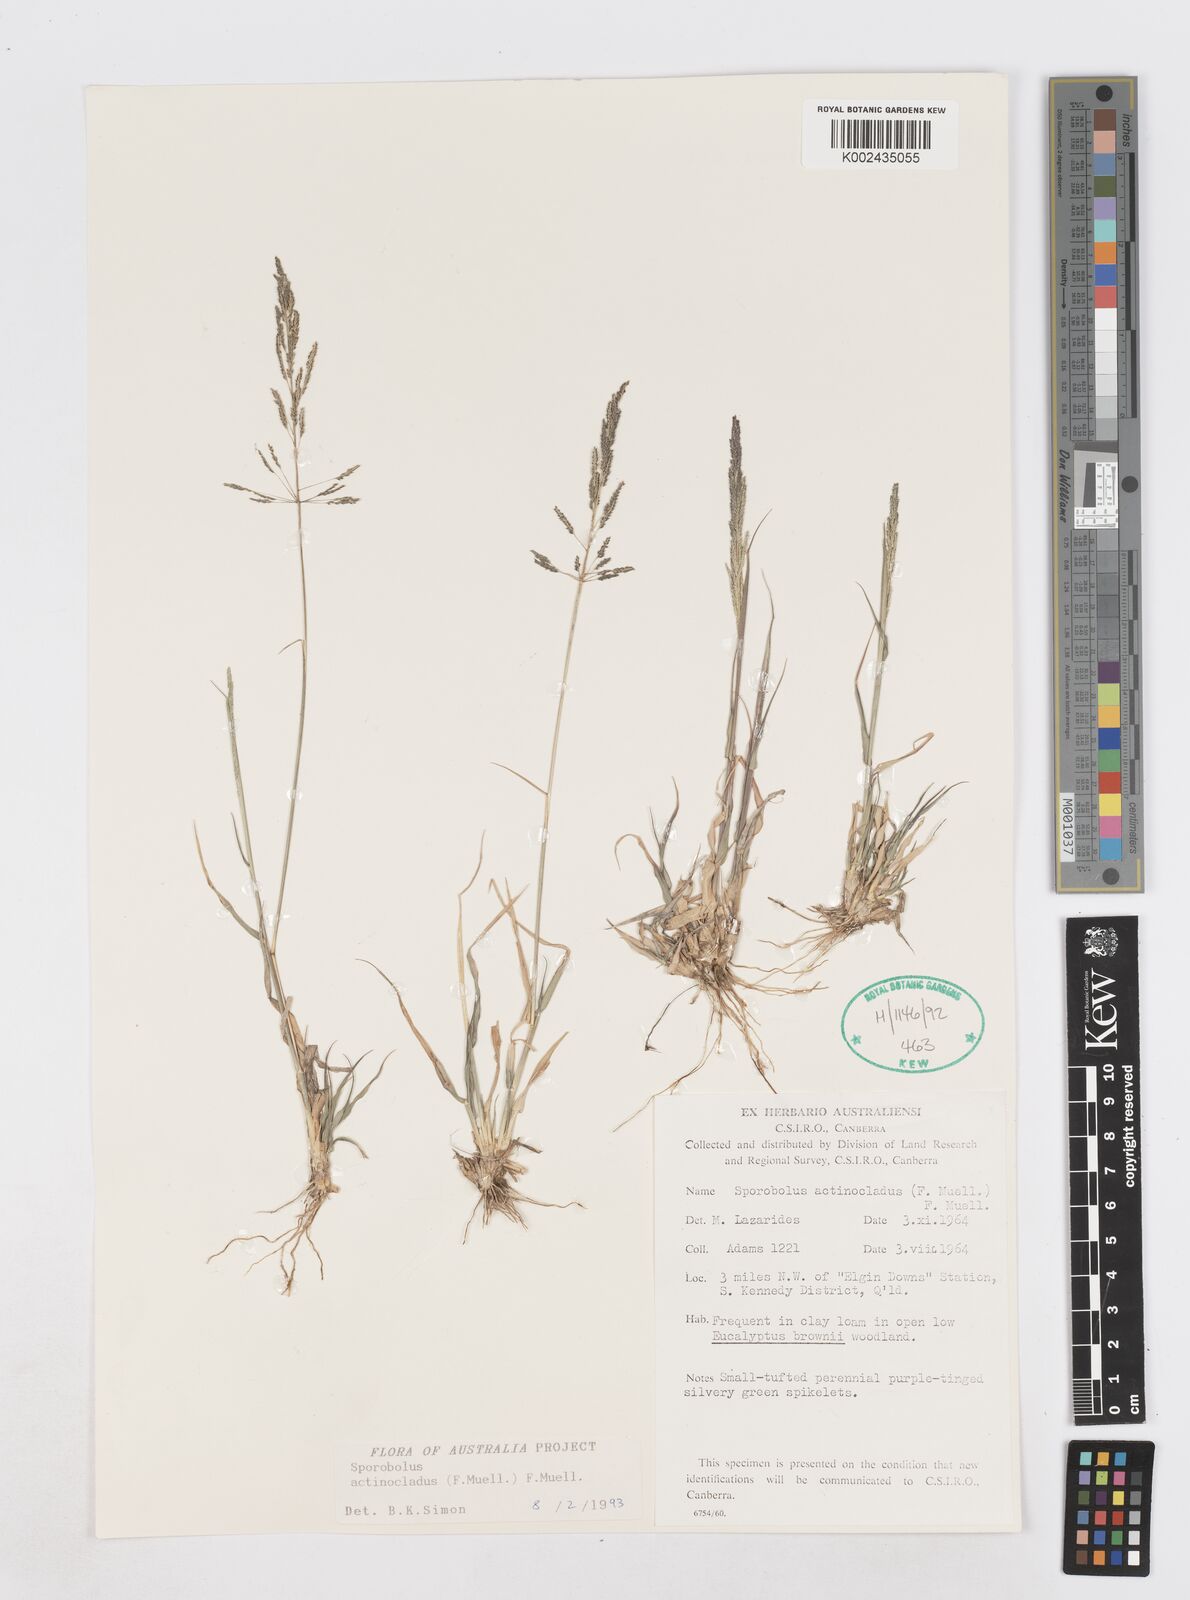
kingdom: Plantae
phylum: Tracheophyta
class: Liliopsida
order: Poales
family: Poaceae
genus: Sporobolus
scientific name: Sporobolus actinocladus
